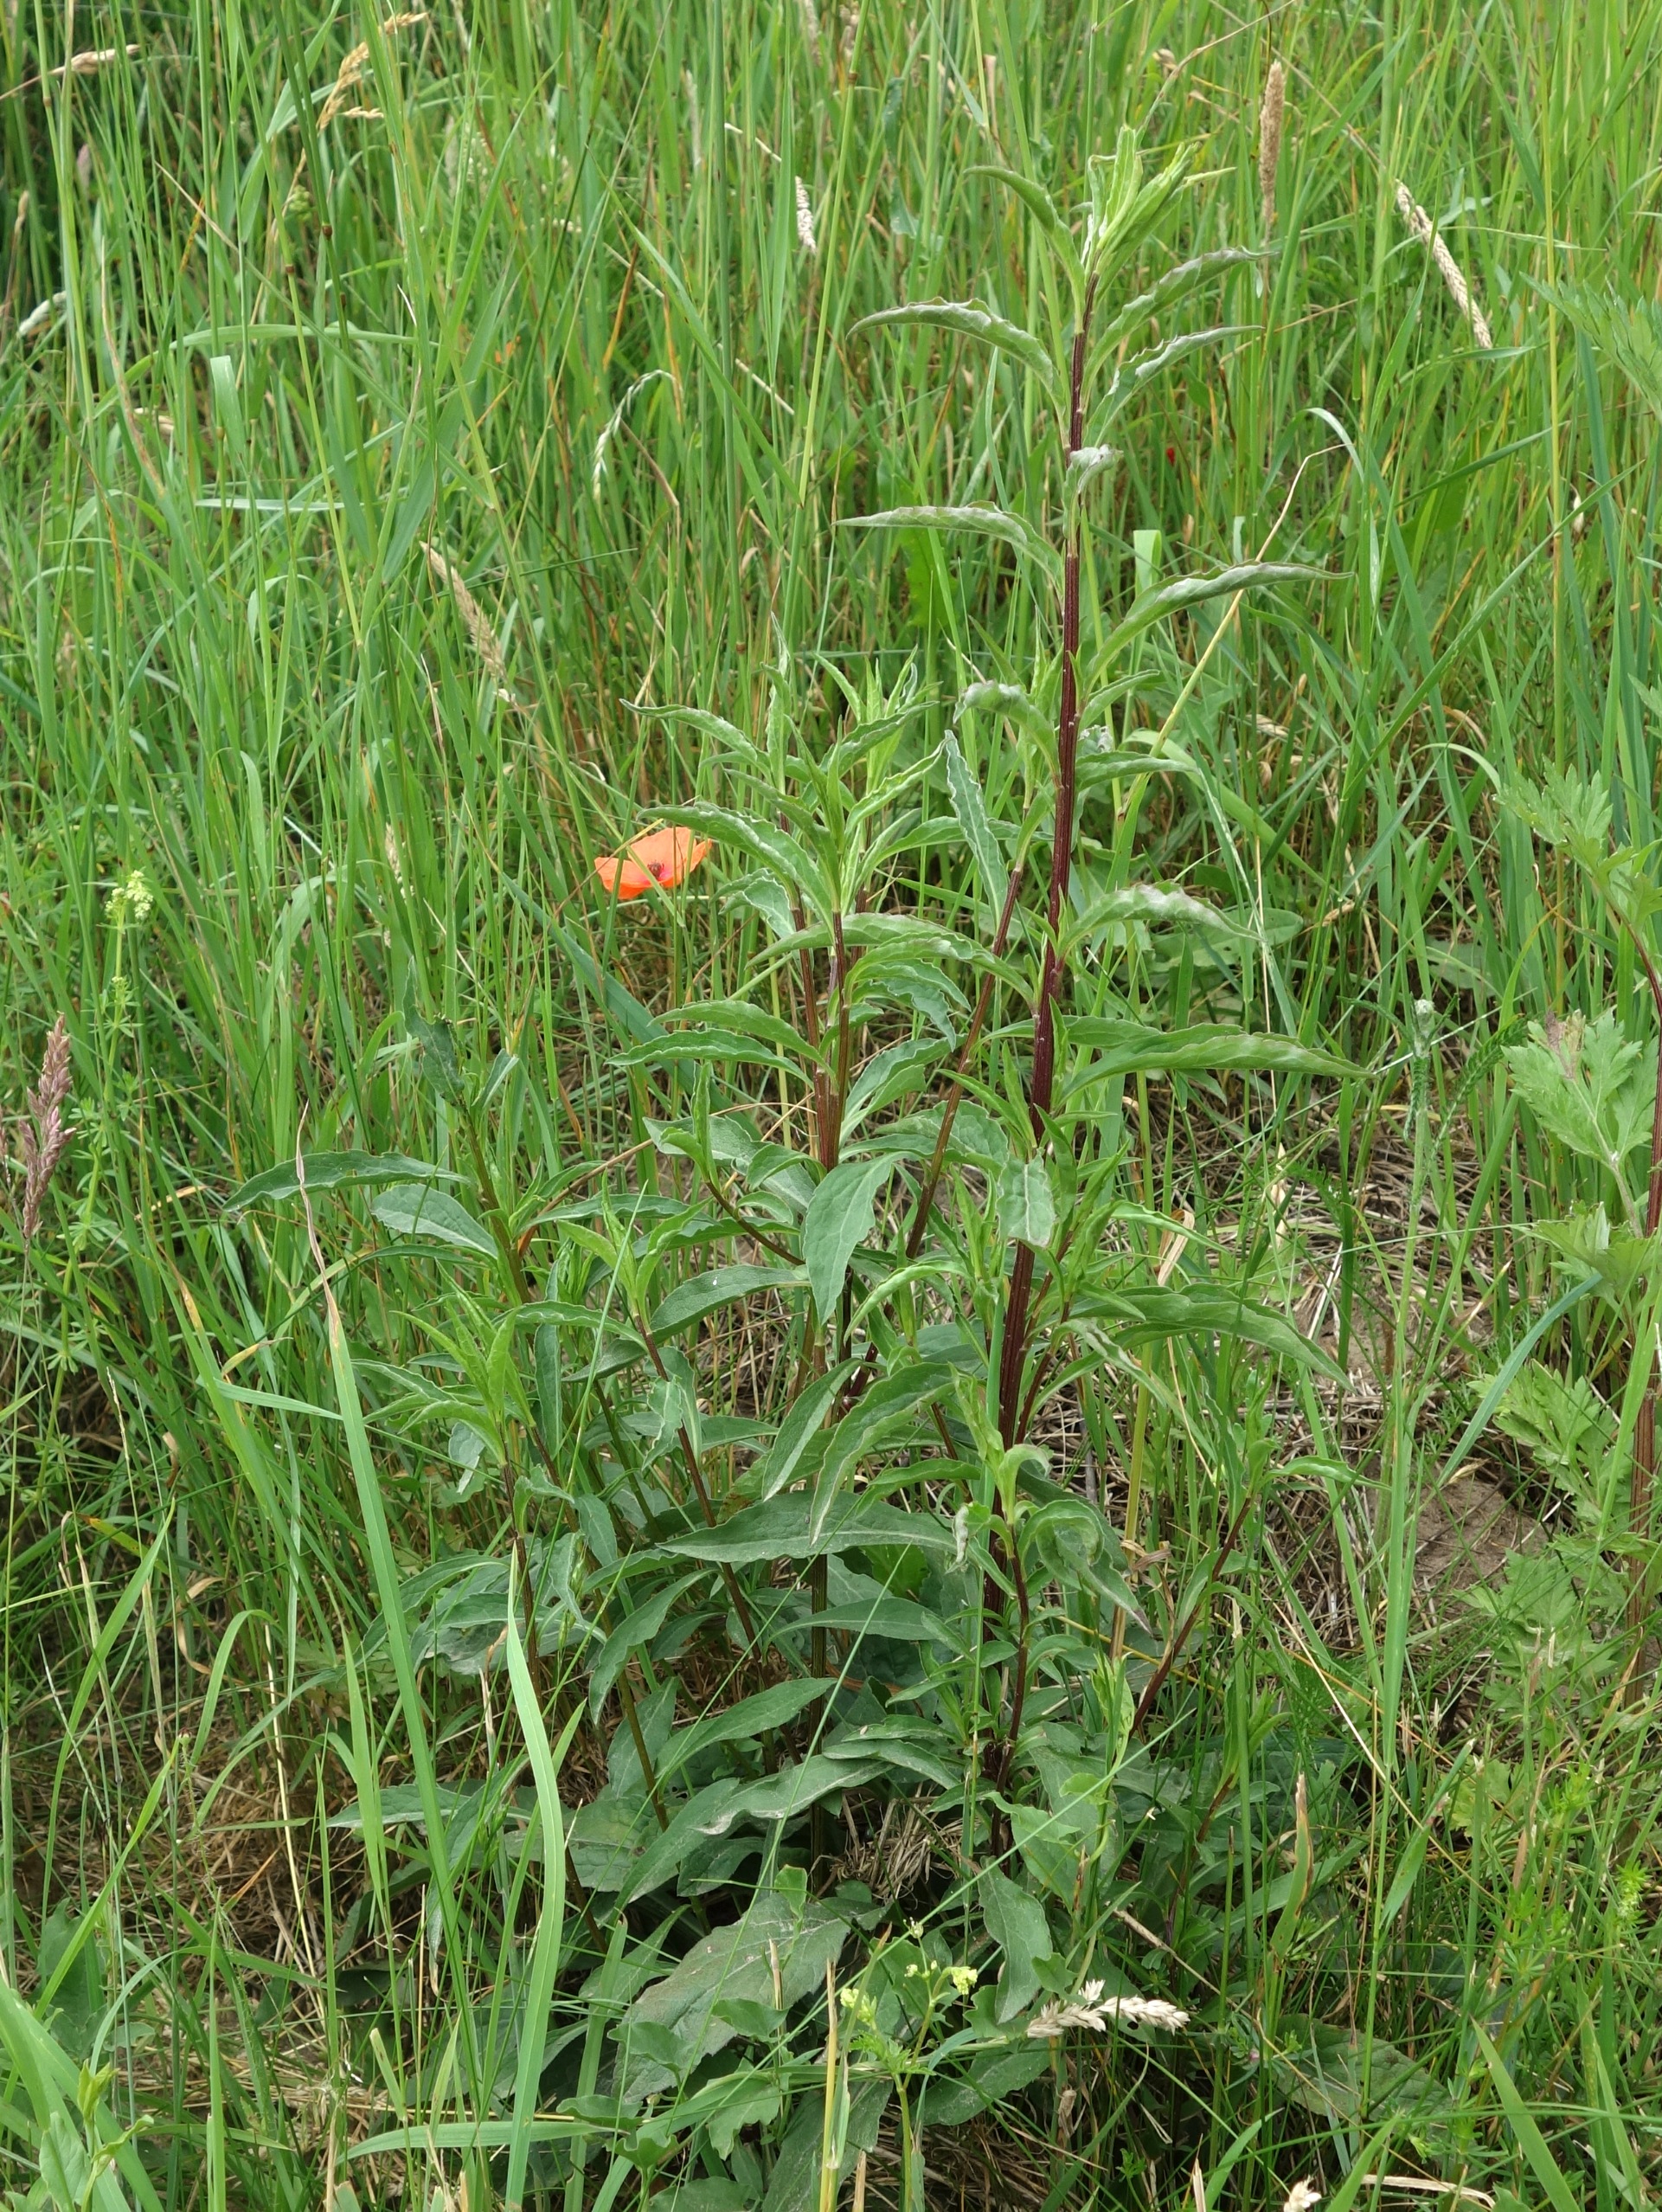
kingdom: Plantae
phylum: Tracheophyta
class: Magnoliopsida
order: Asterales
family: Asteraceae
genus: Solidago
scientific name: Solidago virgaurea
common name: Almindelig gyldenris
